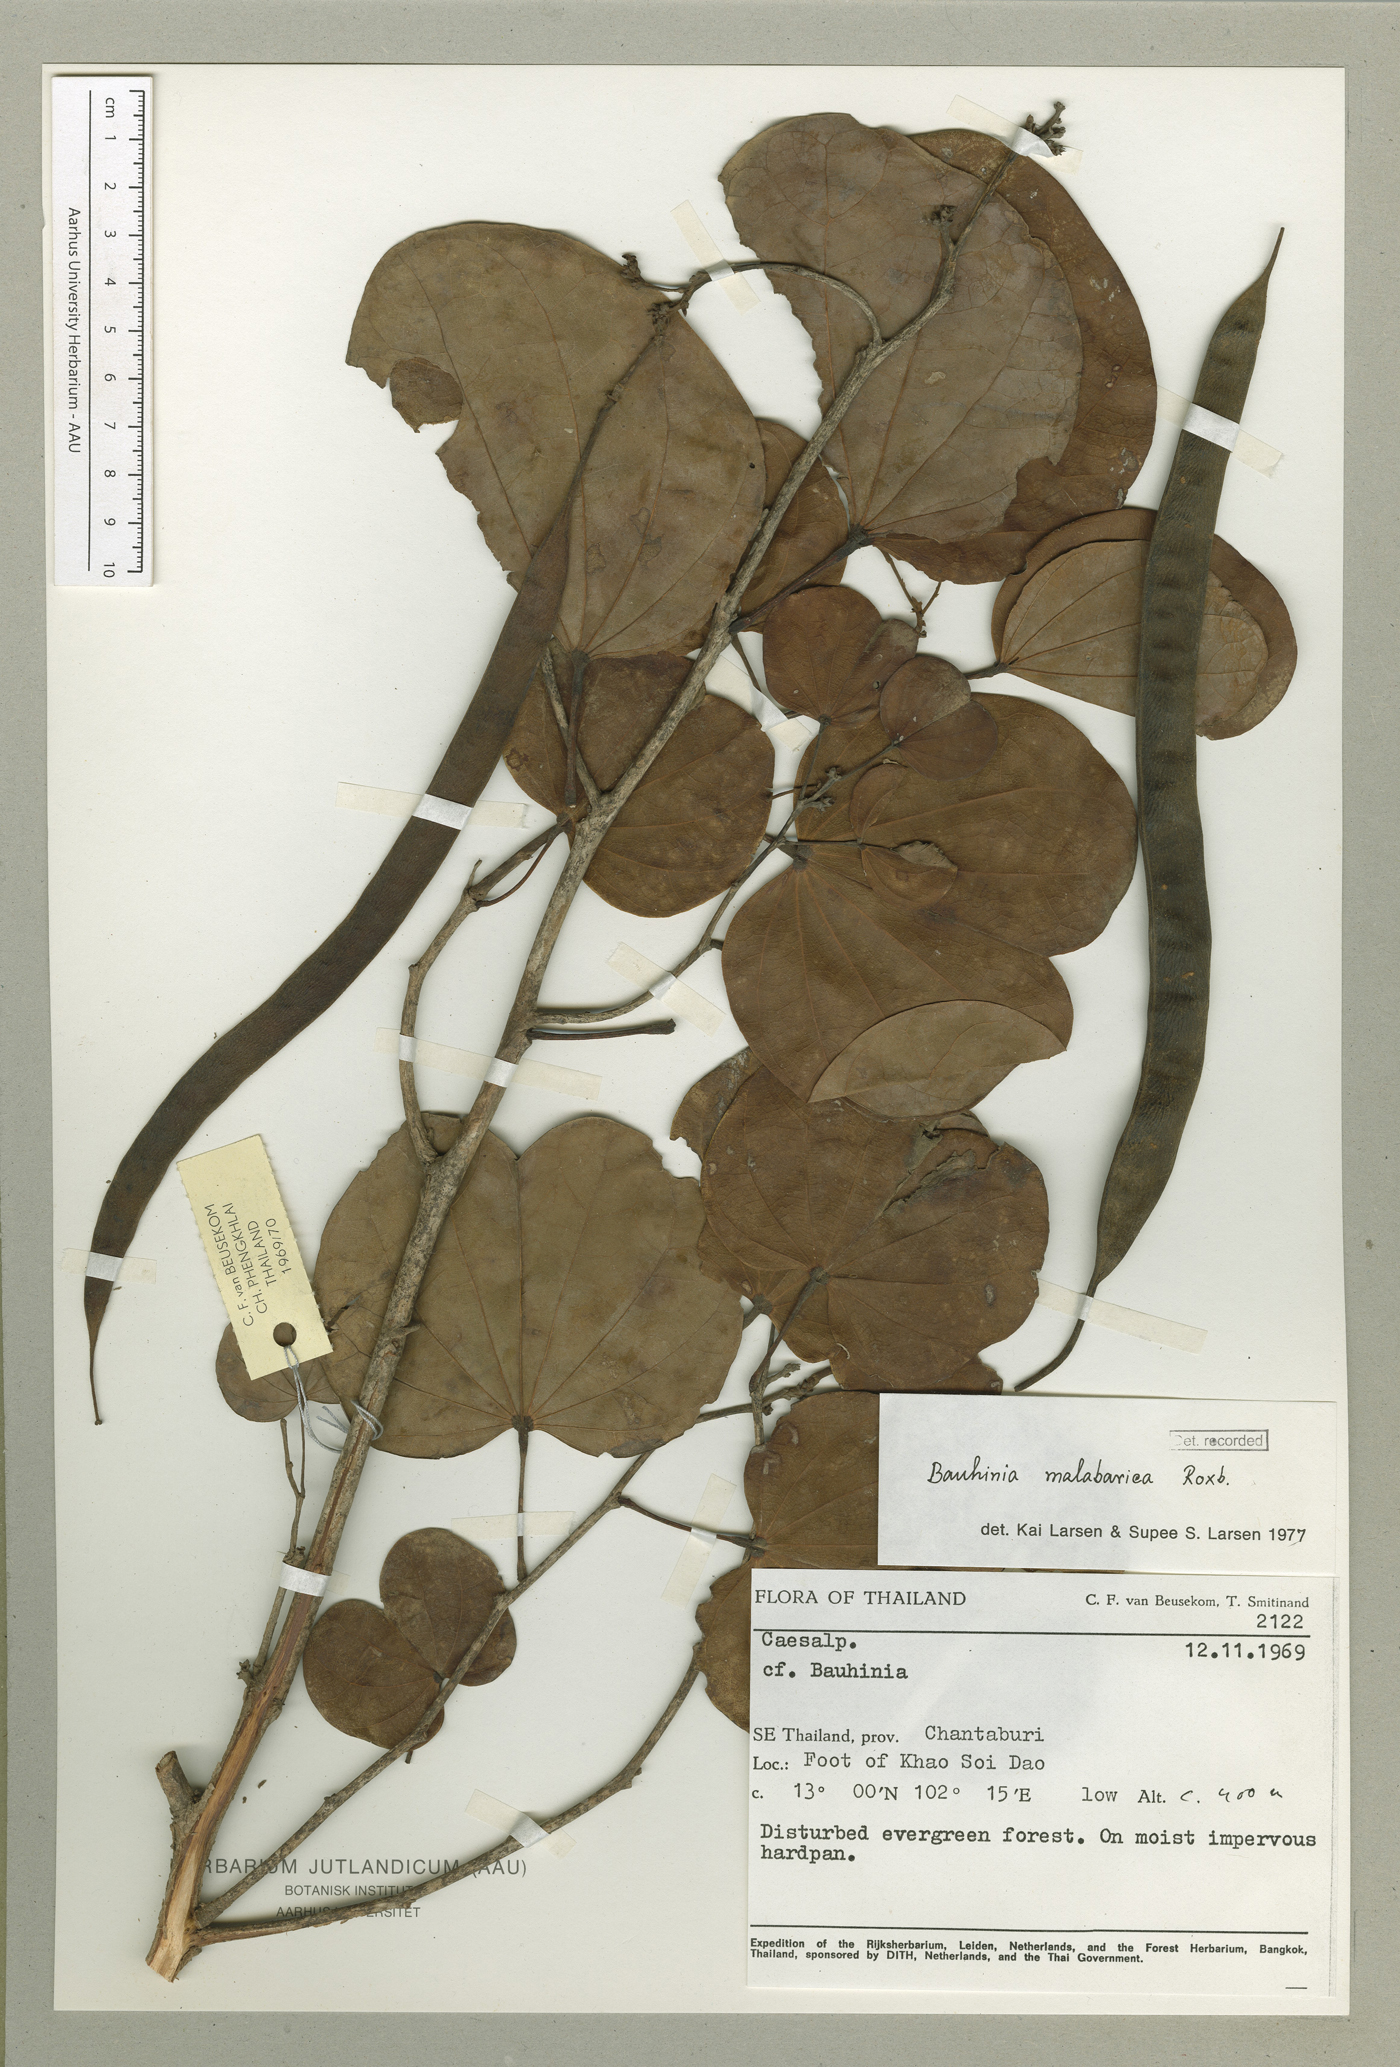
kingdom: Plantae
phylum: Tracheophyta
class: Magnoliopsida
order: Fabales
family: Fabaceae
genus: Piliostigma
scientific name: Piliostigma malabaricum
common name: Malabar bauhinia
